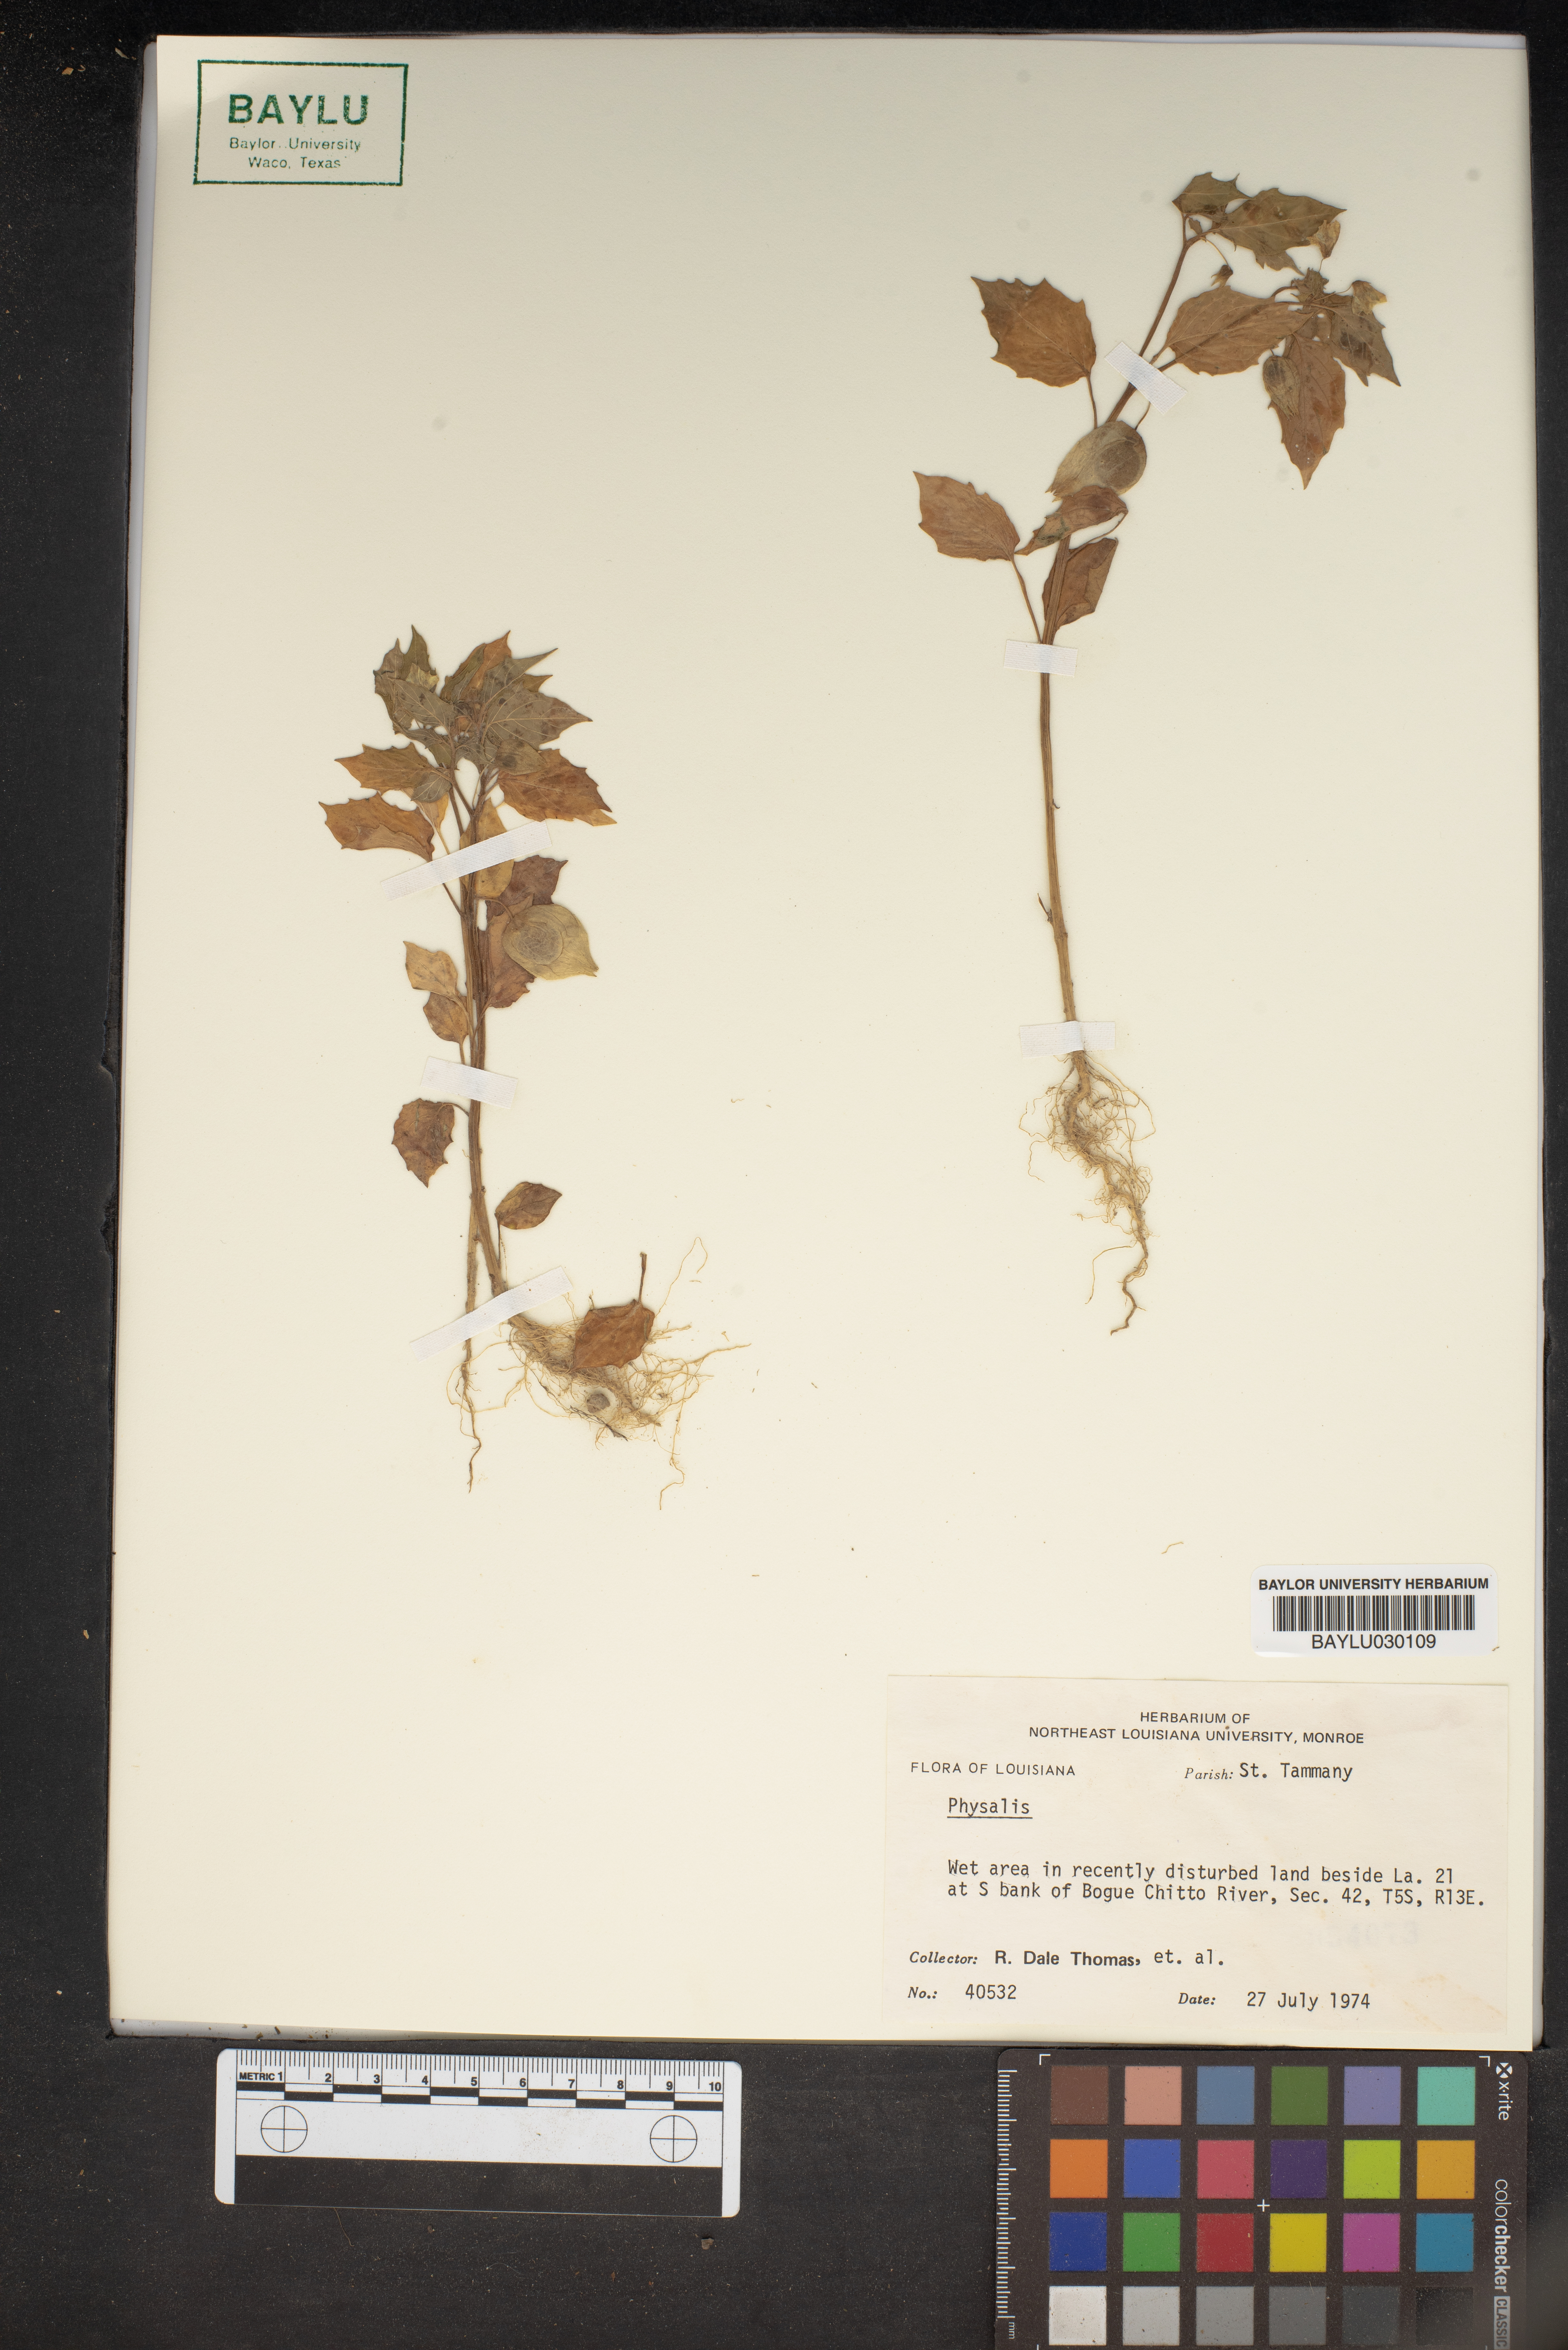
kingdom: Plantae
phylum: Tracheophyta
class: Magnoliopsida
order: Solanales
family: Solanaceae
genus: Physalis
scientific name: Physalis
